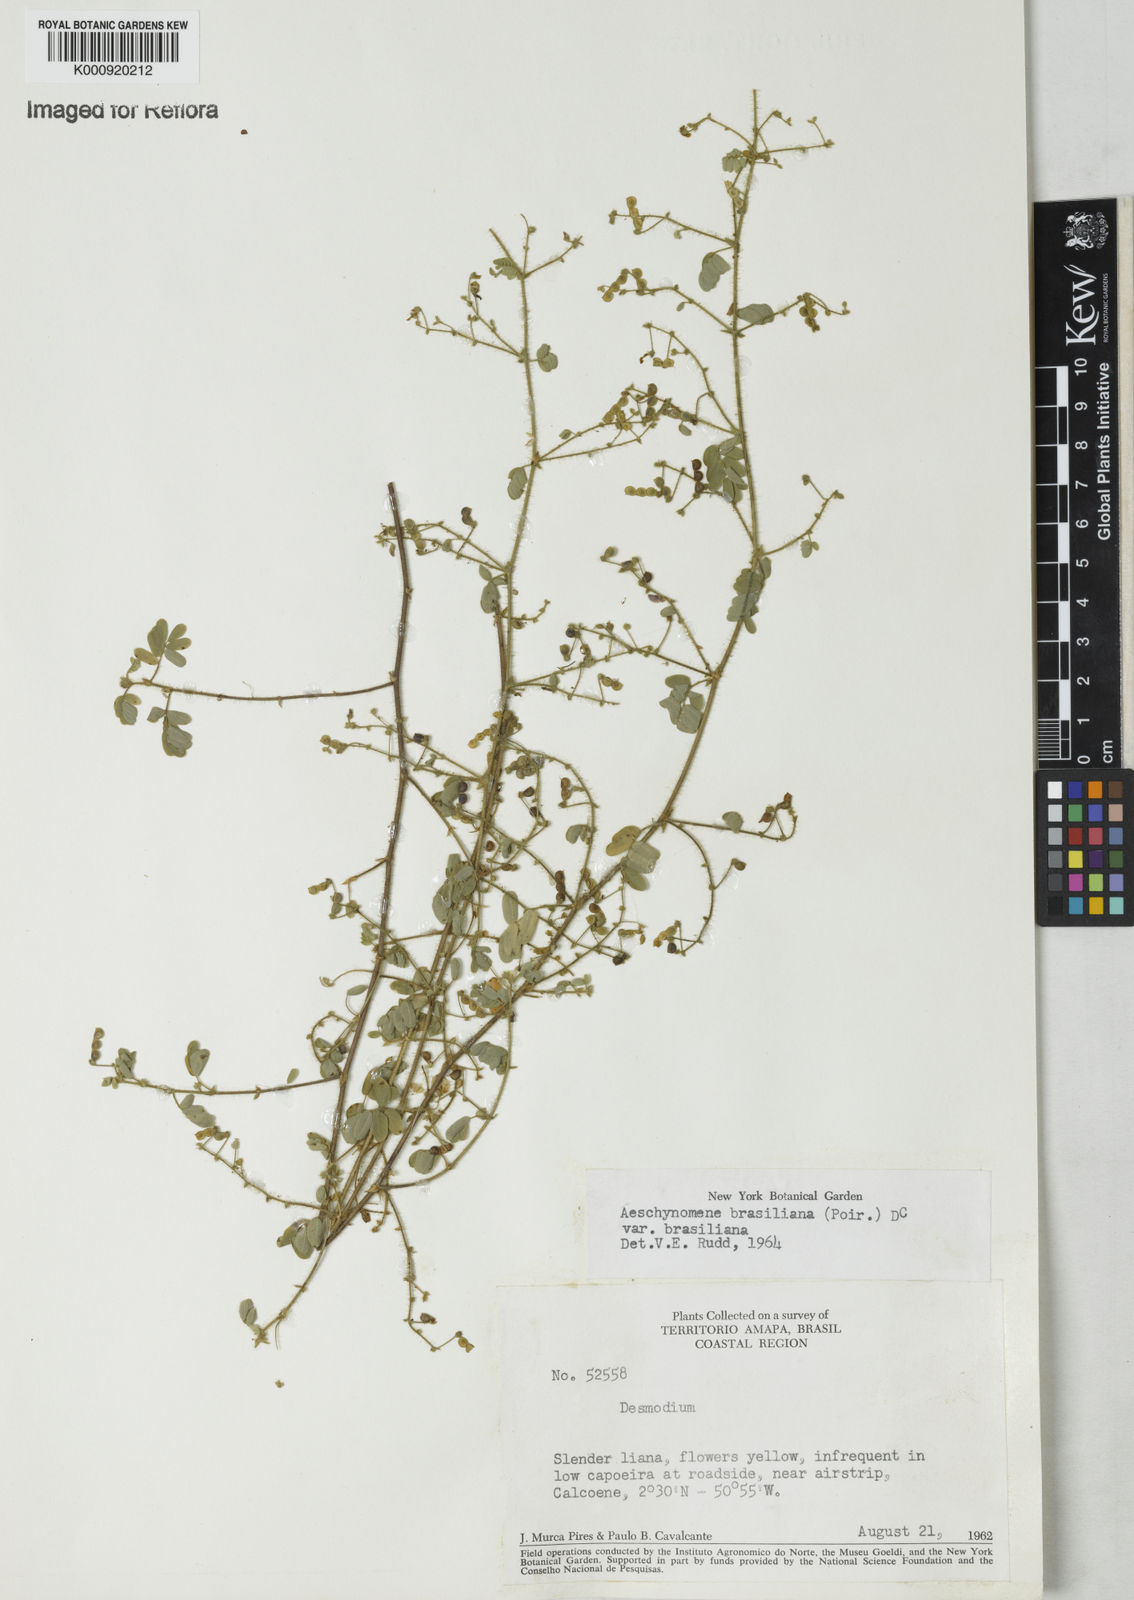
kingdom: Plantae
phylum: Tracheophyta
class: Magnoliopsida
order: Fabales
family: Fabaceae
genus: Ctenodon
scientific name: Ctenodon brasilianus
